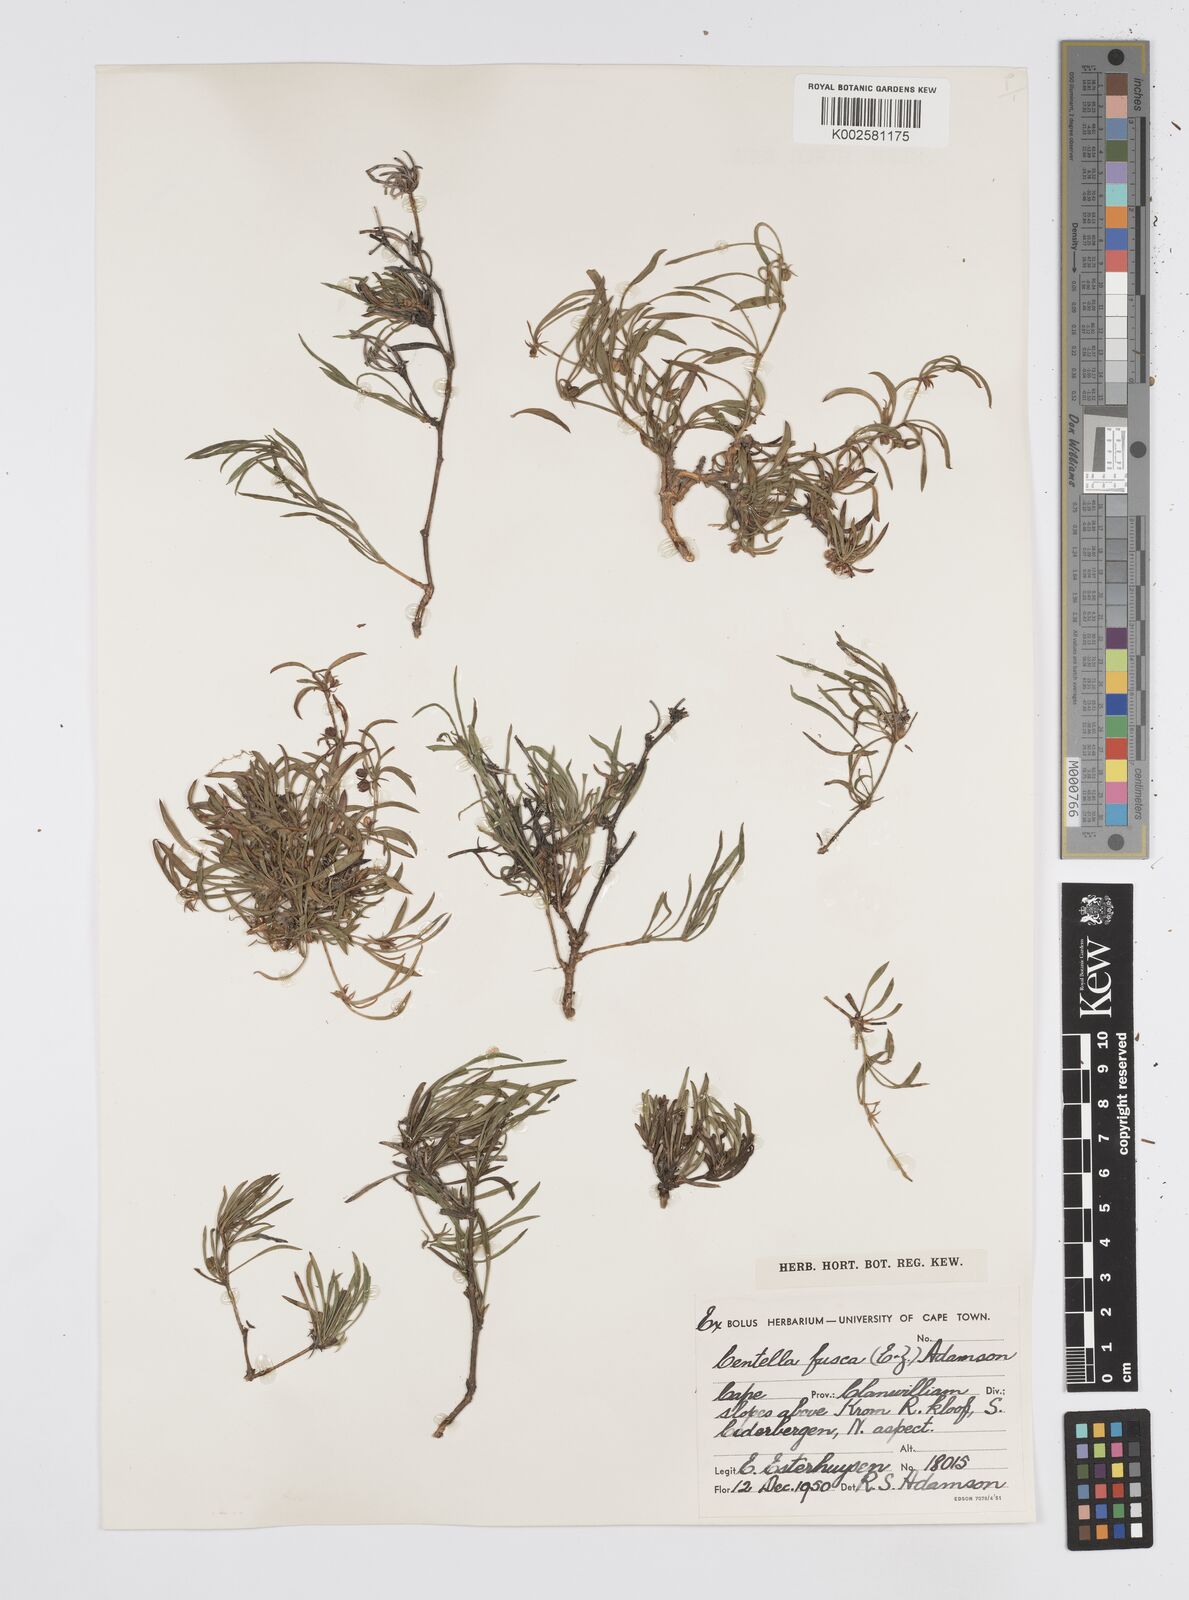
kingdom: Plantae
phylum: Tracheophyta
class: Magnoliopsida
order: Apiales
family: Apiaceae
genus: Centella
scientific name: Centella fusca
